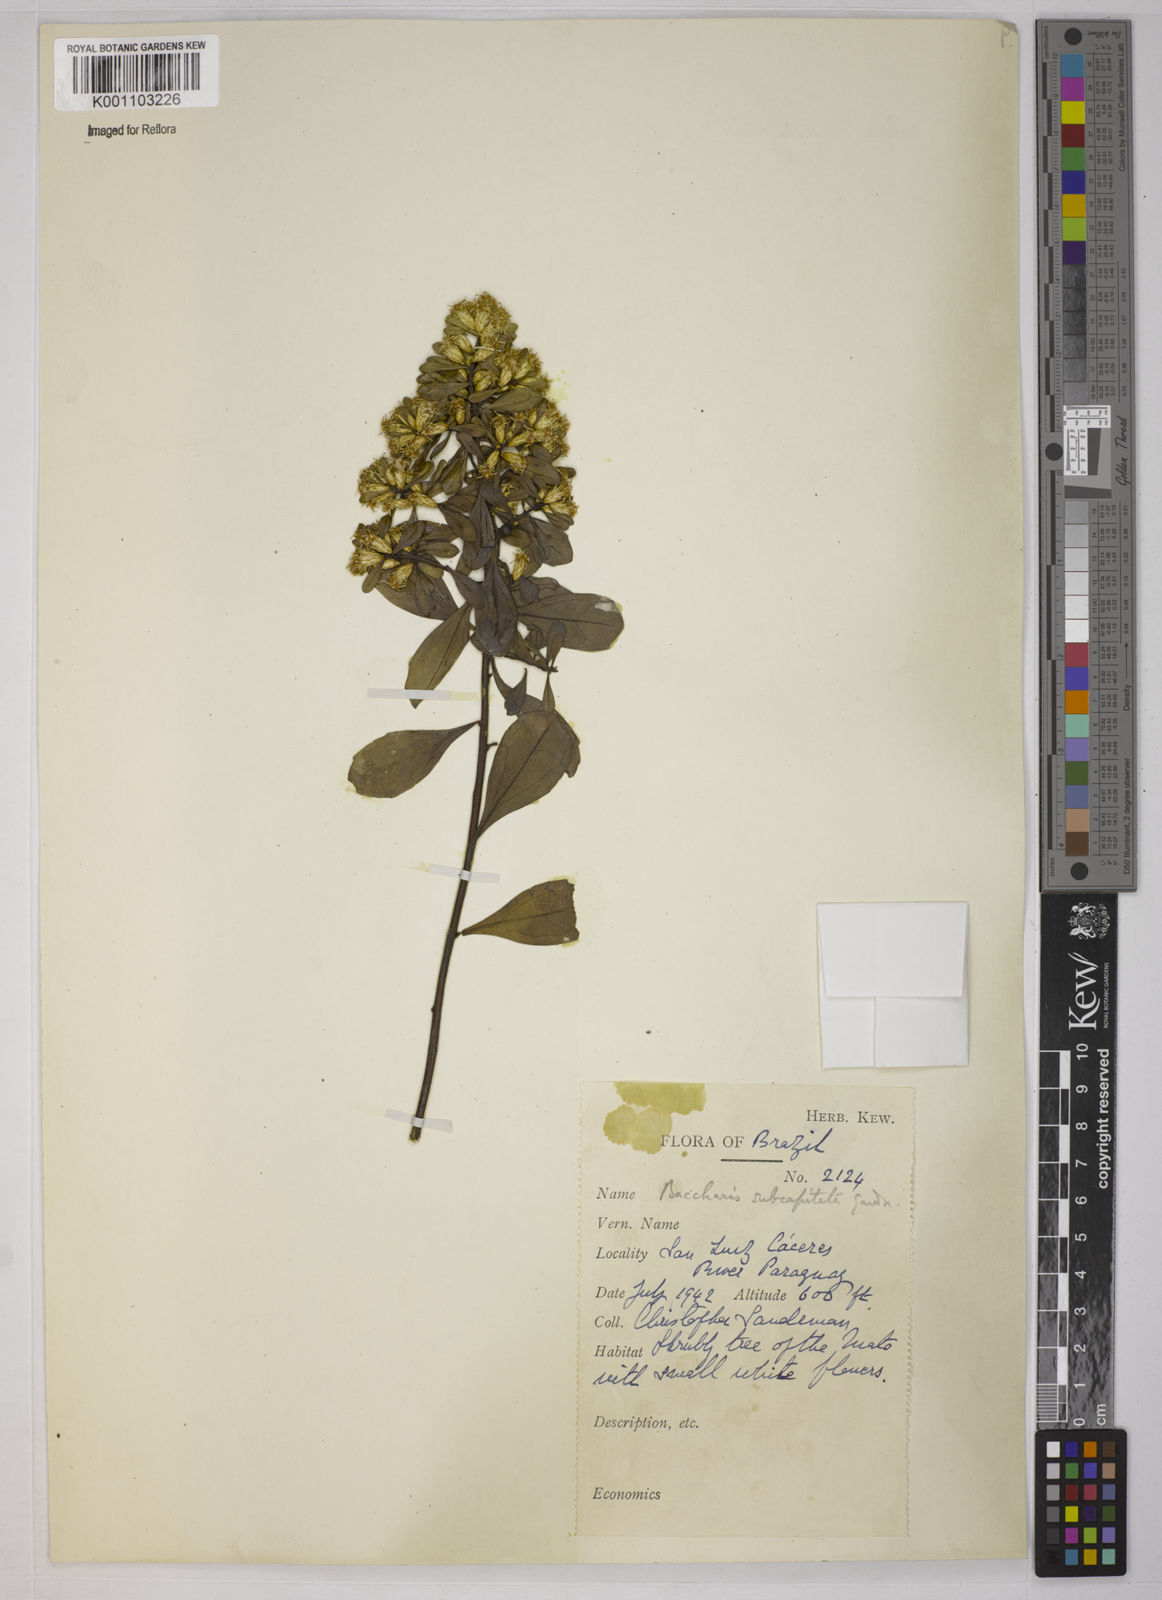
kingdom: Plantae
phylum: Tracheophyta
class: Magnoliopsida
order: Asterales
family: Asteraceae
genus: Baccharis
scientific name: Baccharis subdentata
